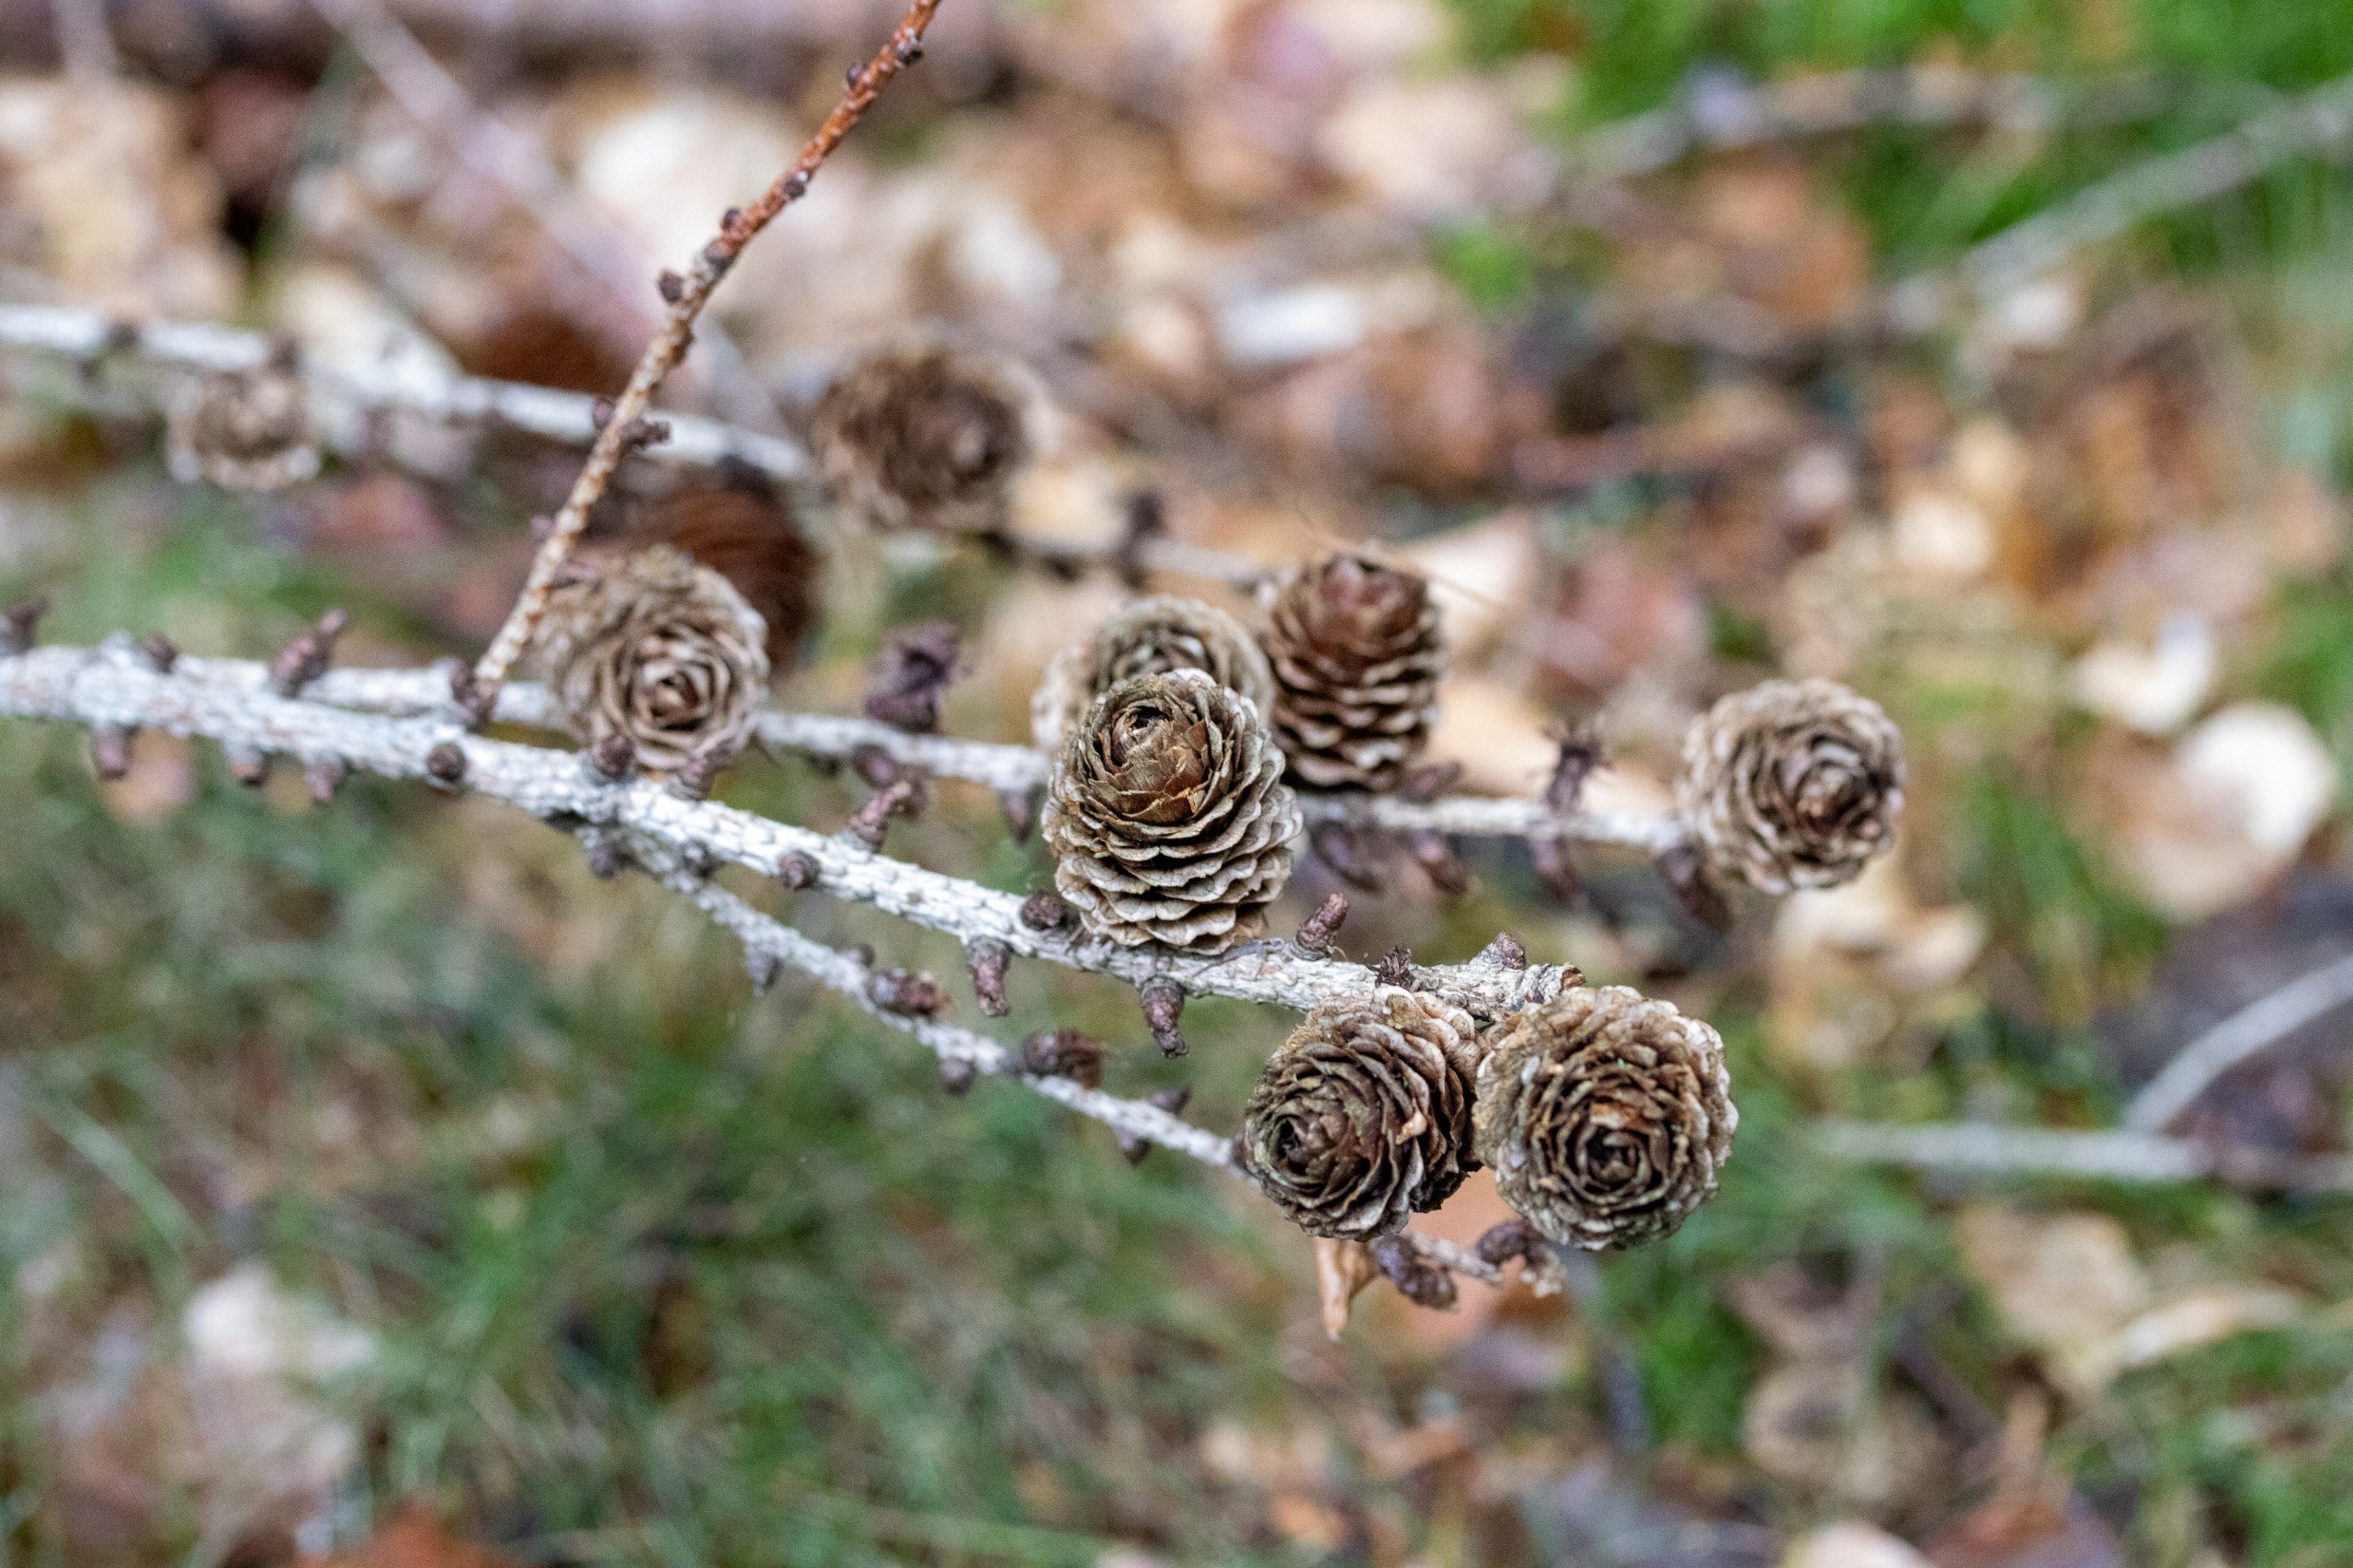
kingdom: Plantae
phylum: Tracheophyta
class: Pinopsida
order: Pinales
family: Pinaceae
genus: Larix
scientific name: Larix marschlinsii
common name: Hybrid-lærk
